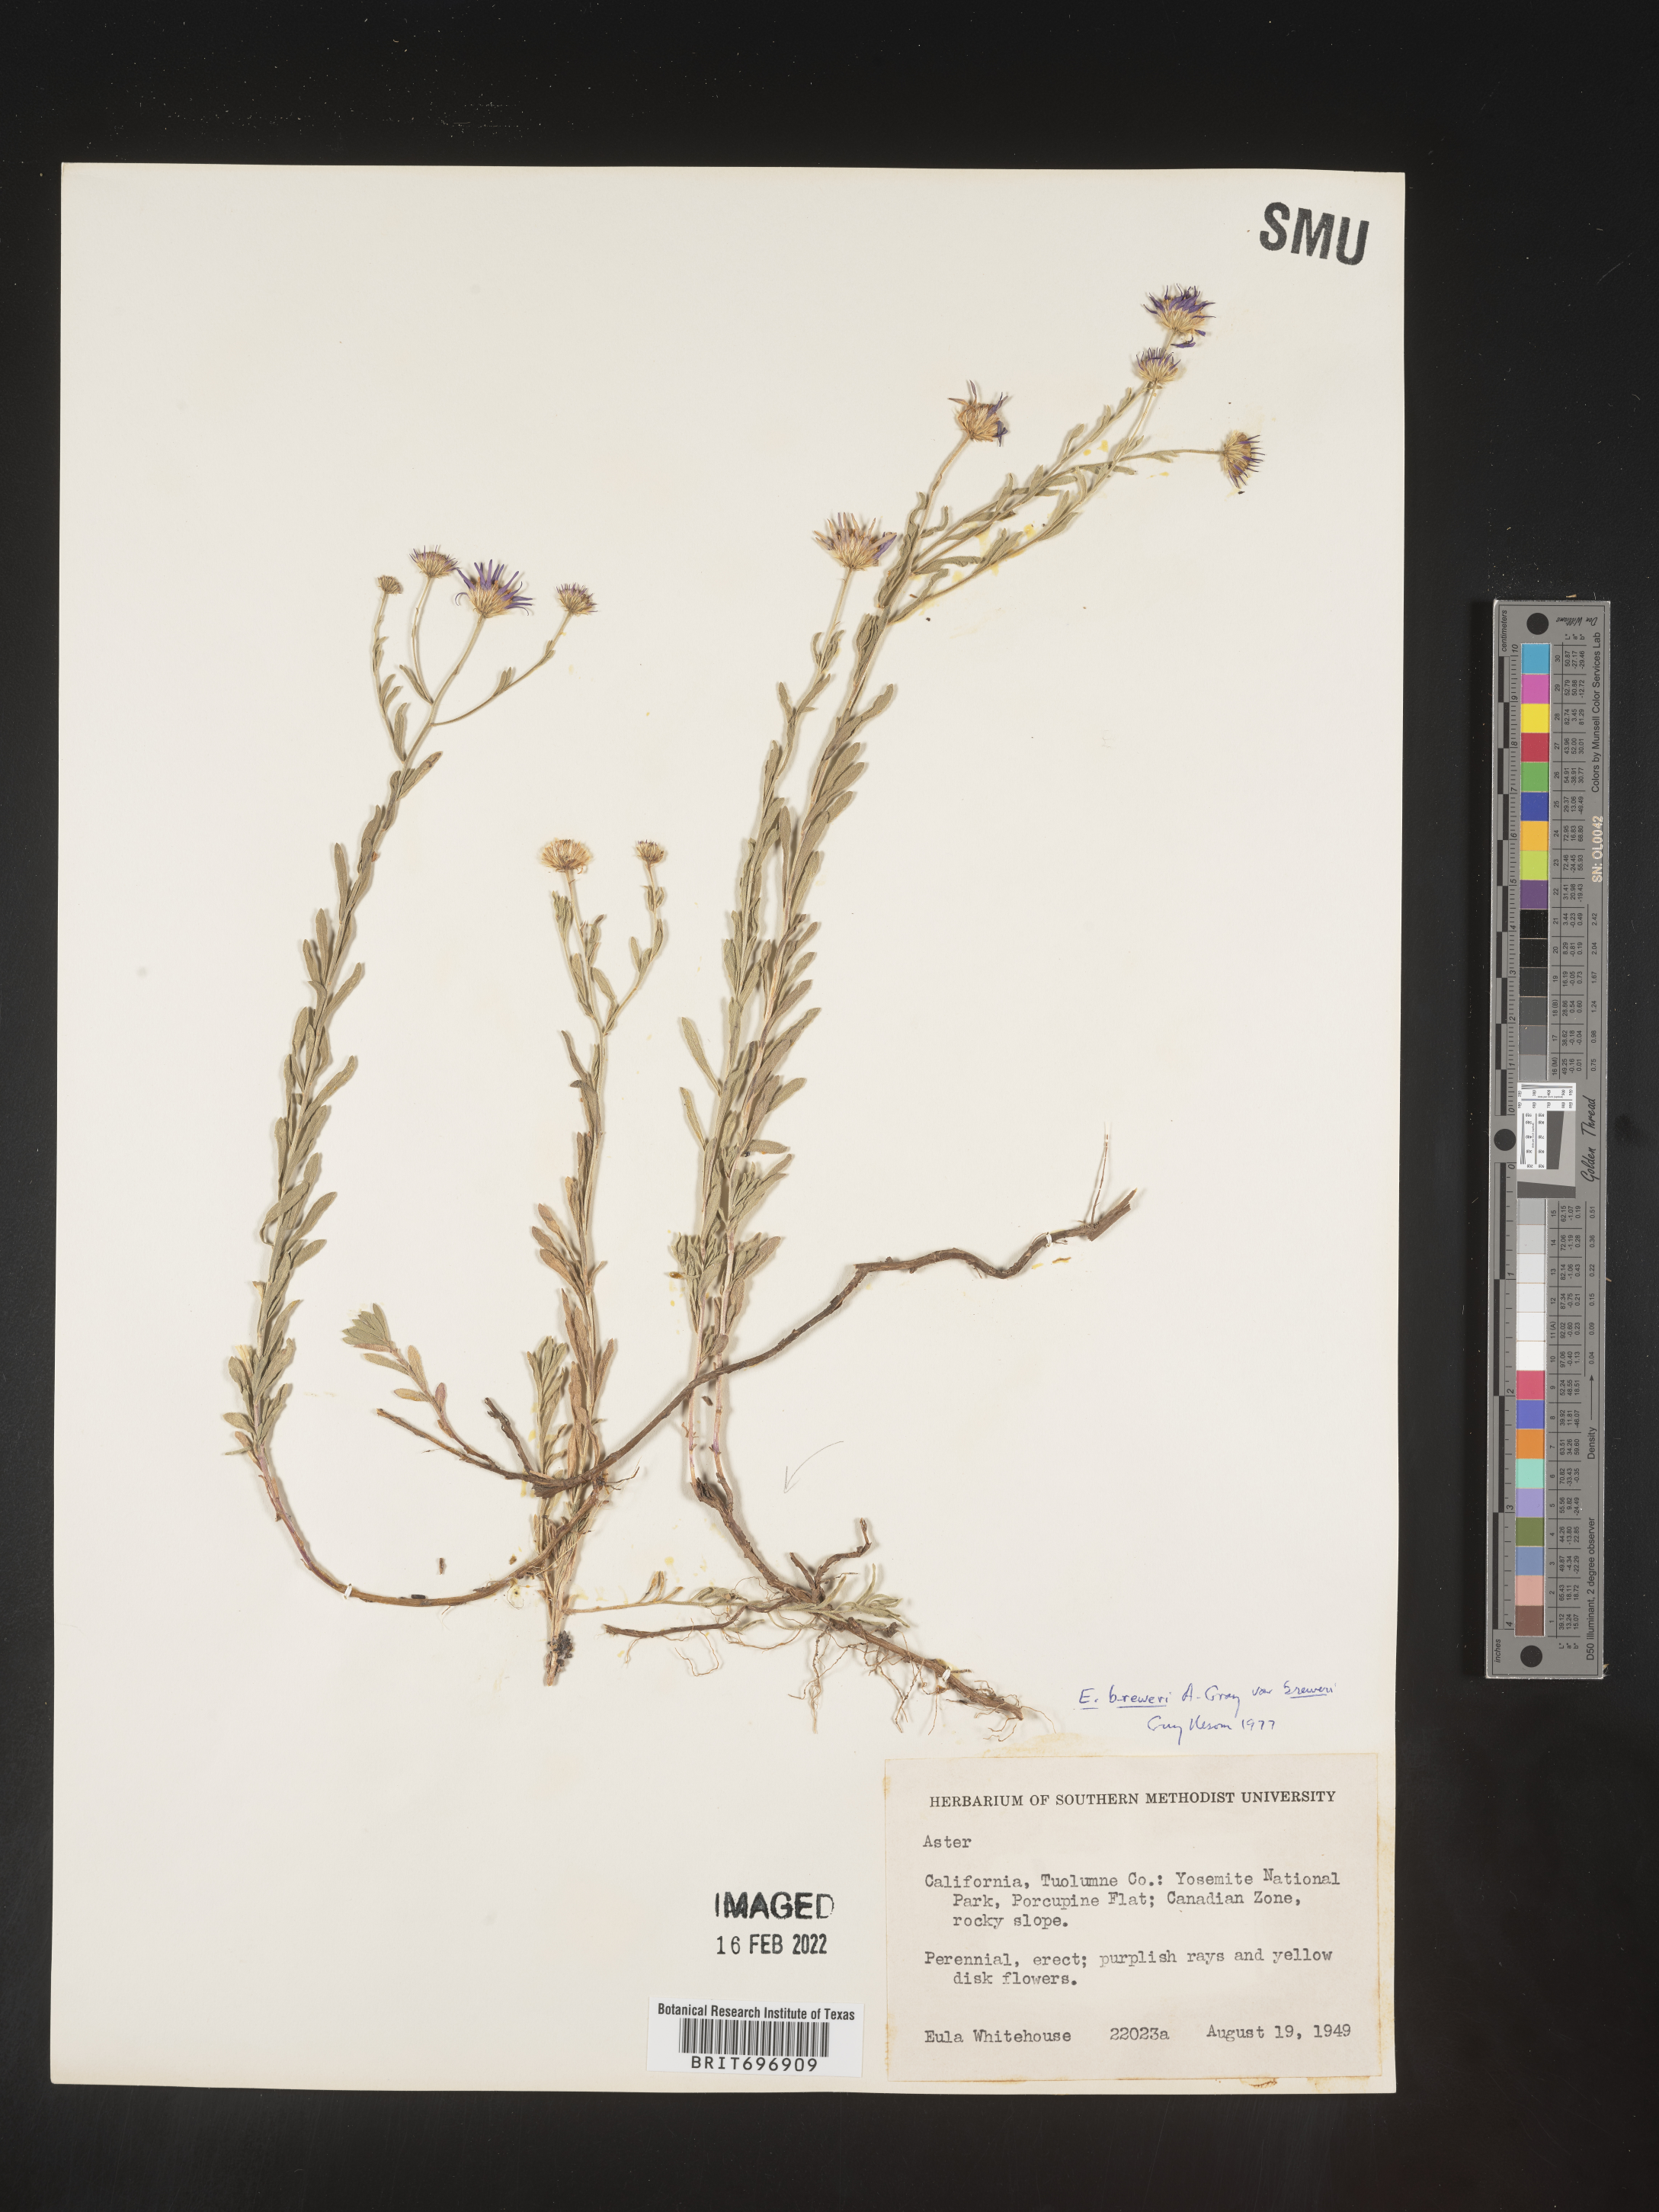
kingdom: Plantae
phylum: Tracheophyta
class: Magnoliopsida
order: Asterales
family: Asteraceae
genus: Erigeron
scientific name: Erigeron breweri
